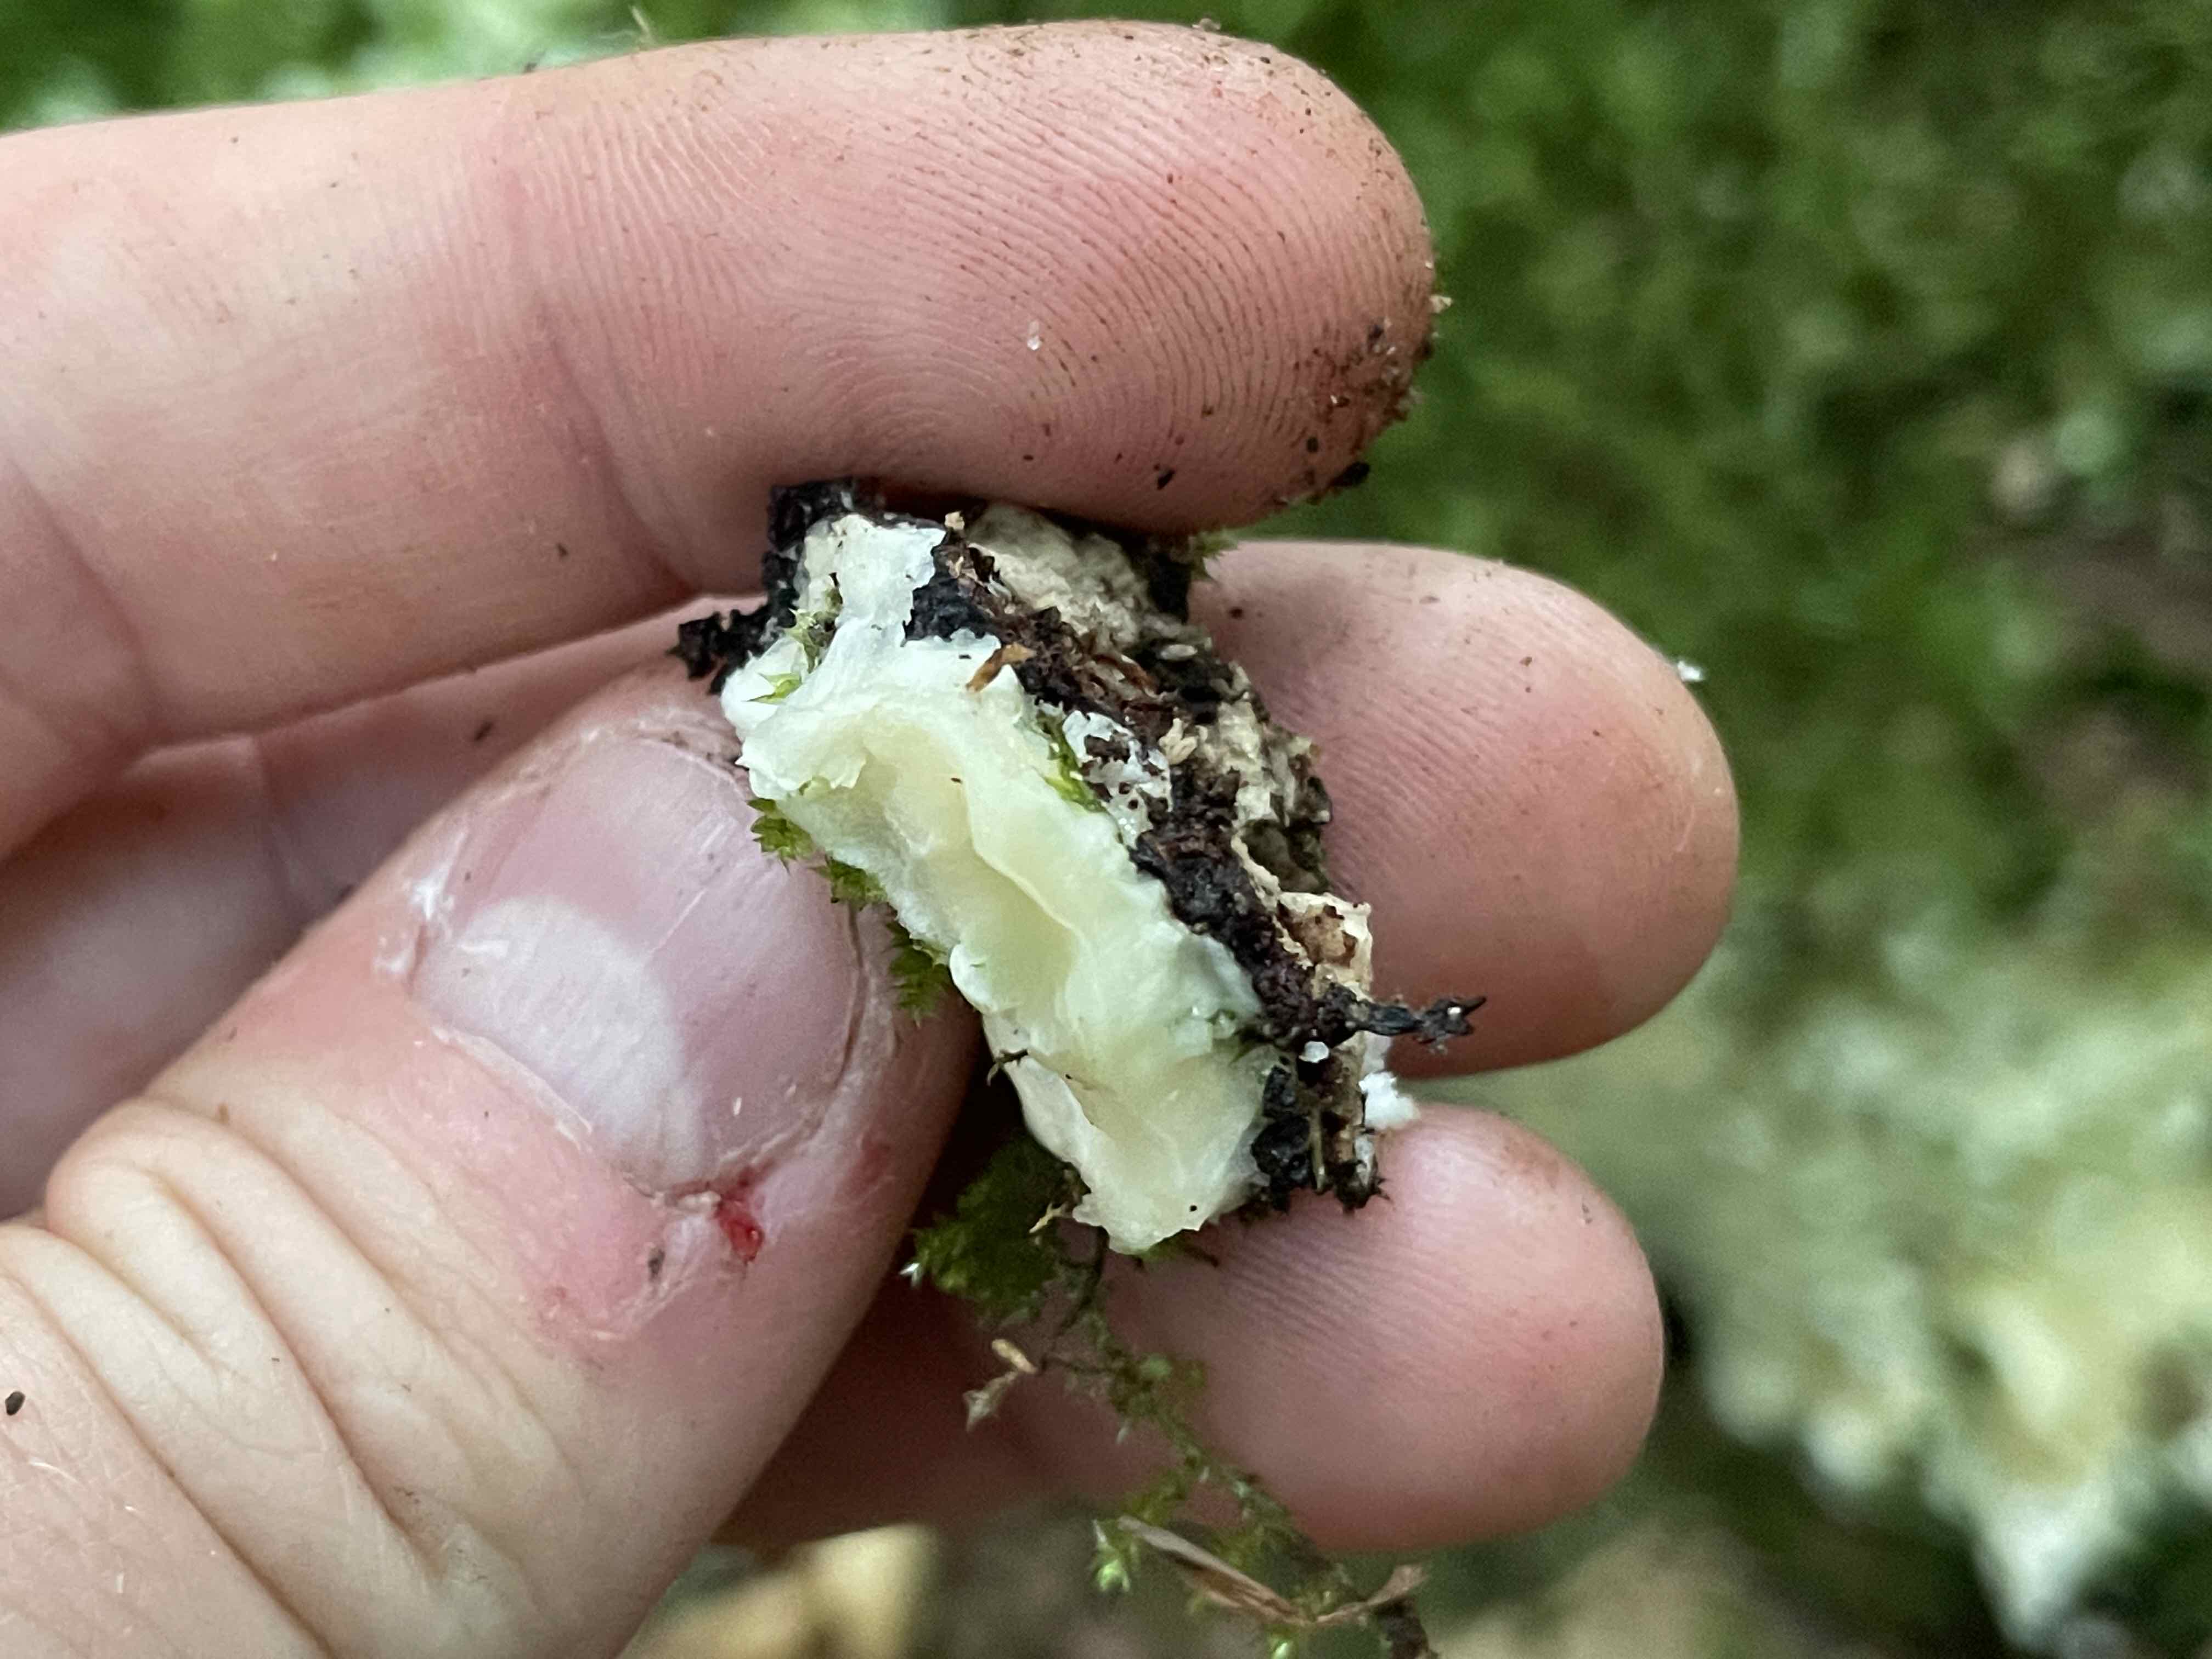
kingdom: Fungi
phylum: Basidiomycota
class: Agaricomycetes
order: Polyporales
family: Meruliaceae
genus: Physisporinus
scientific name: Physisporinus vitreus
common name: mastesvamp
